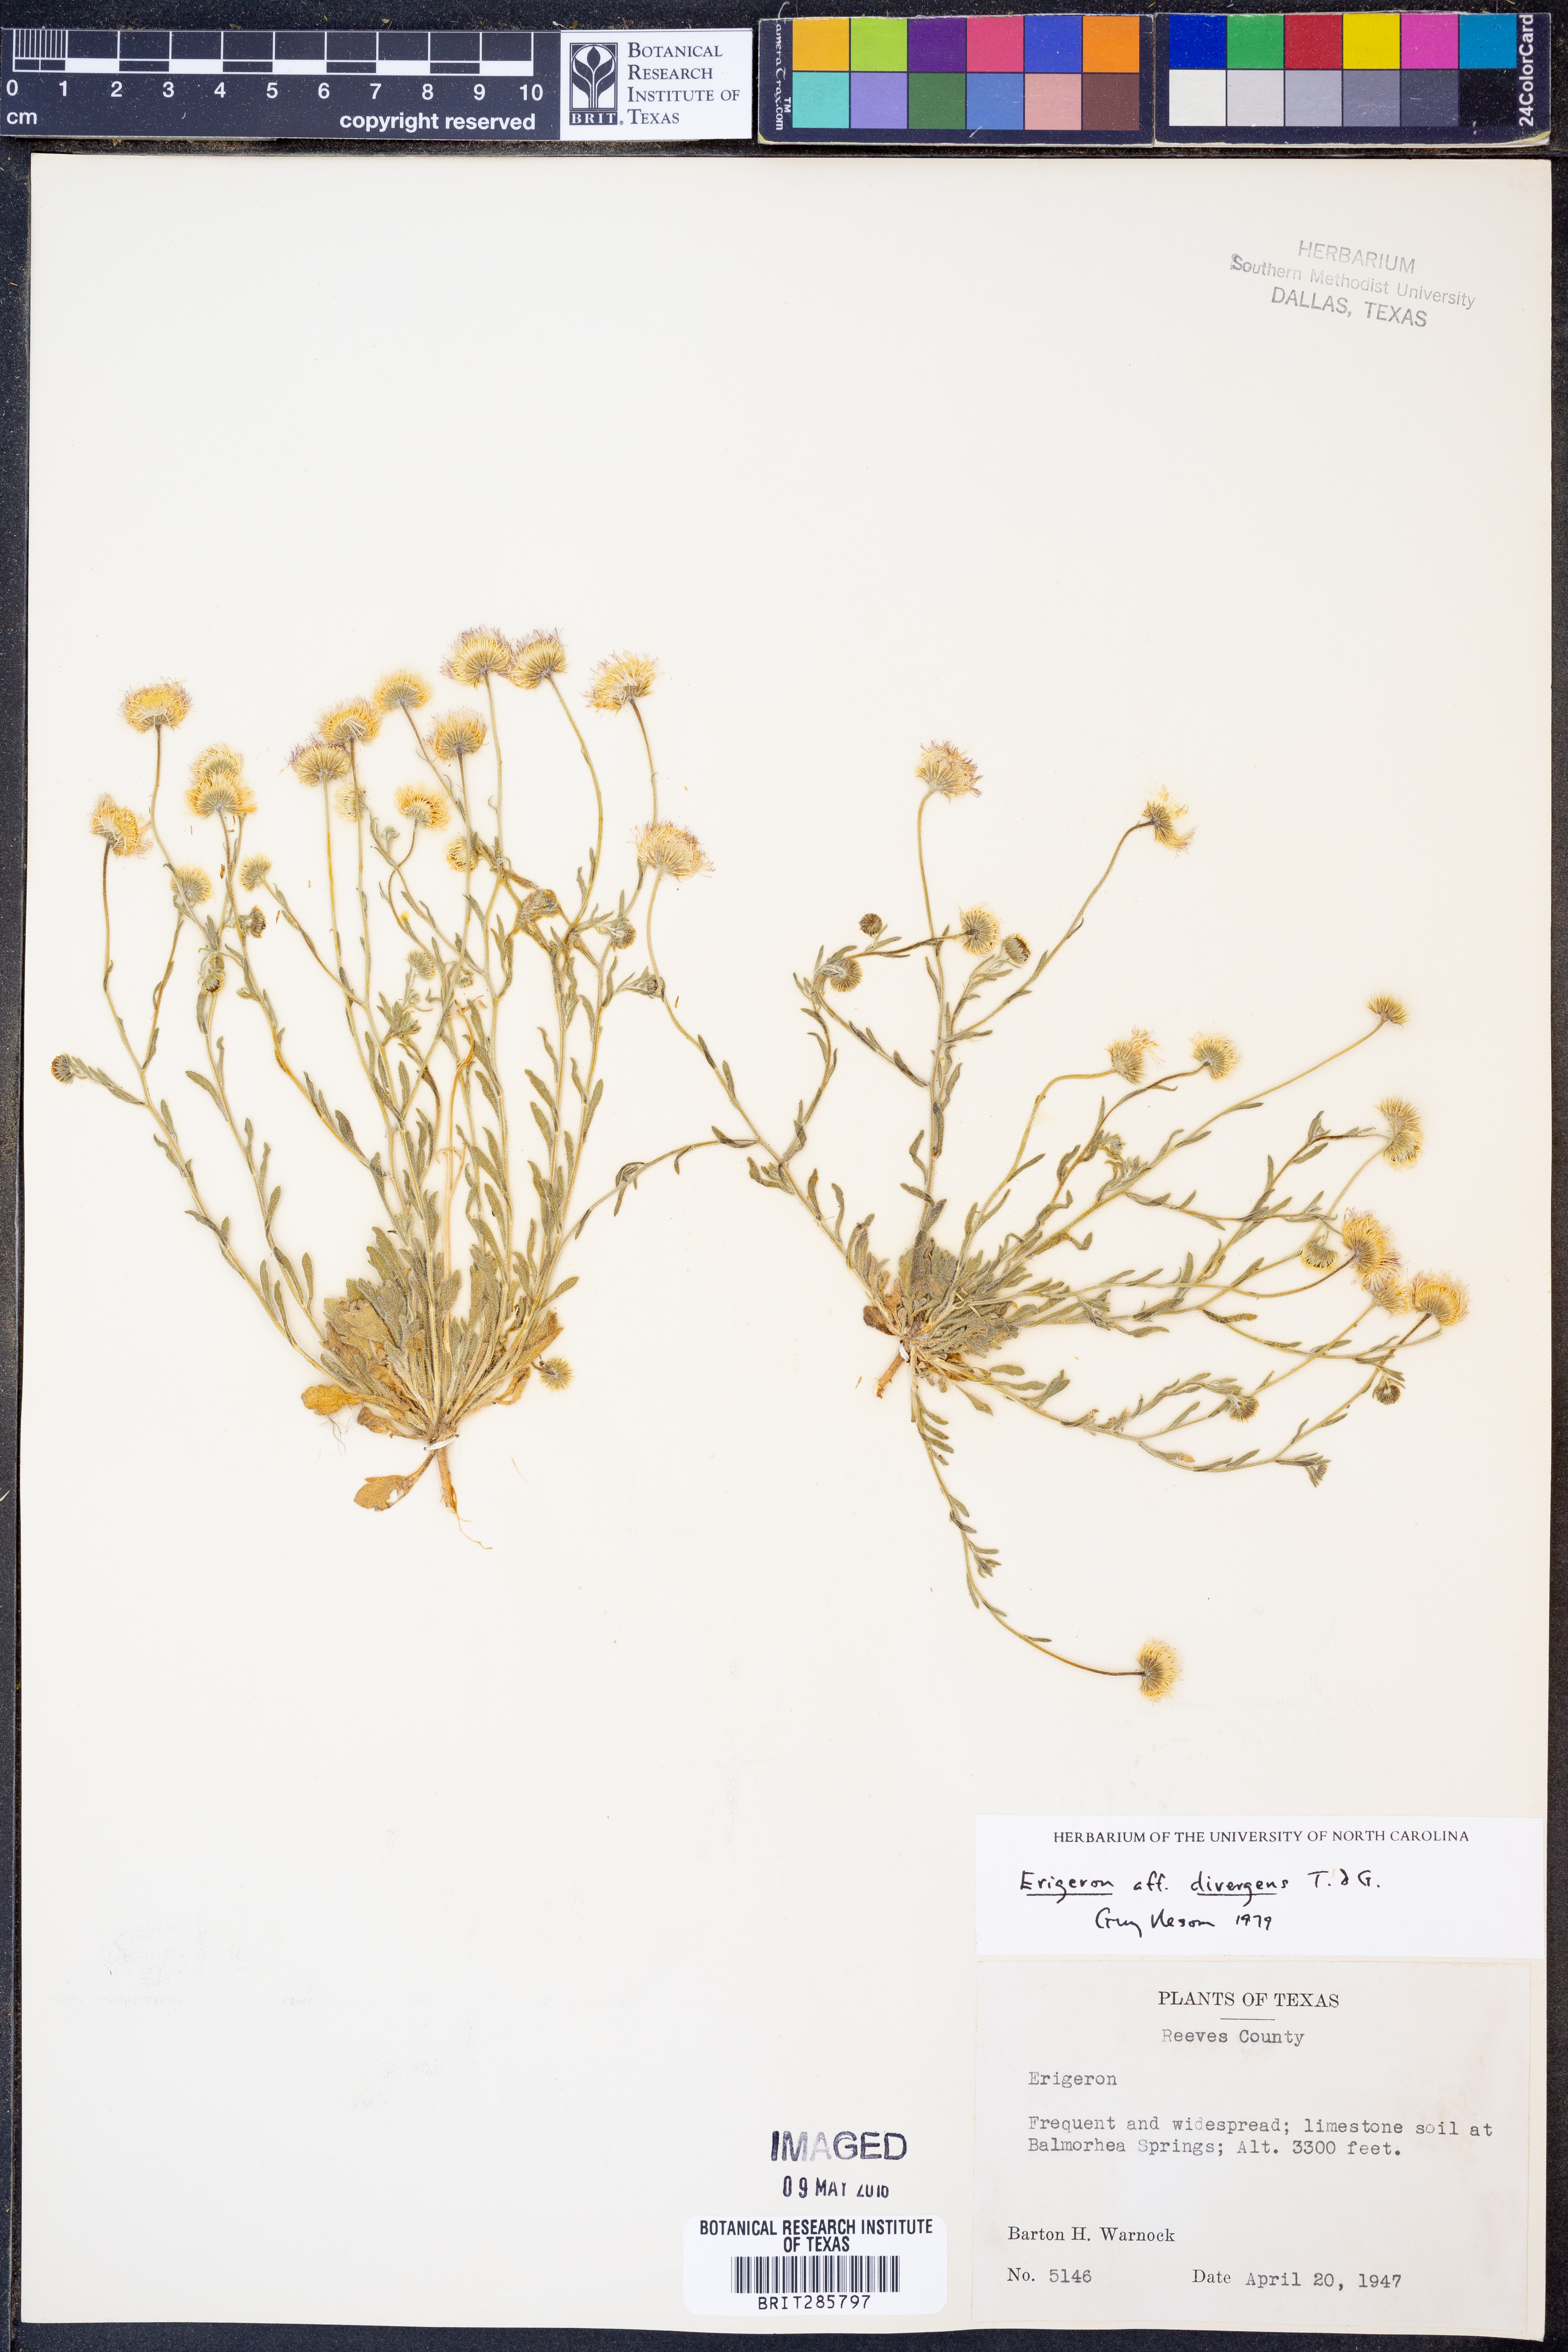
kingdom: Plantae
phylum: Tracheophyta
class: Magnoliopsida
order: Asterales
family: Asteraceae
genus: Erigeron
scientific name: Erigeron divergens
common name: Diffuse fleabane
